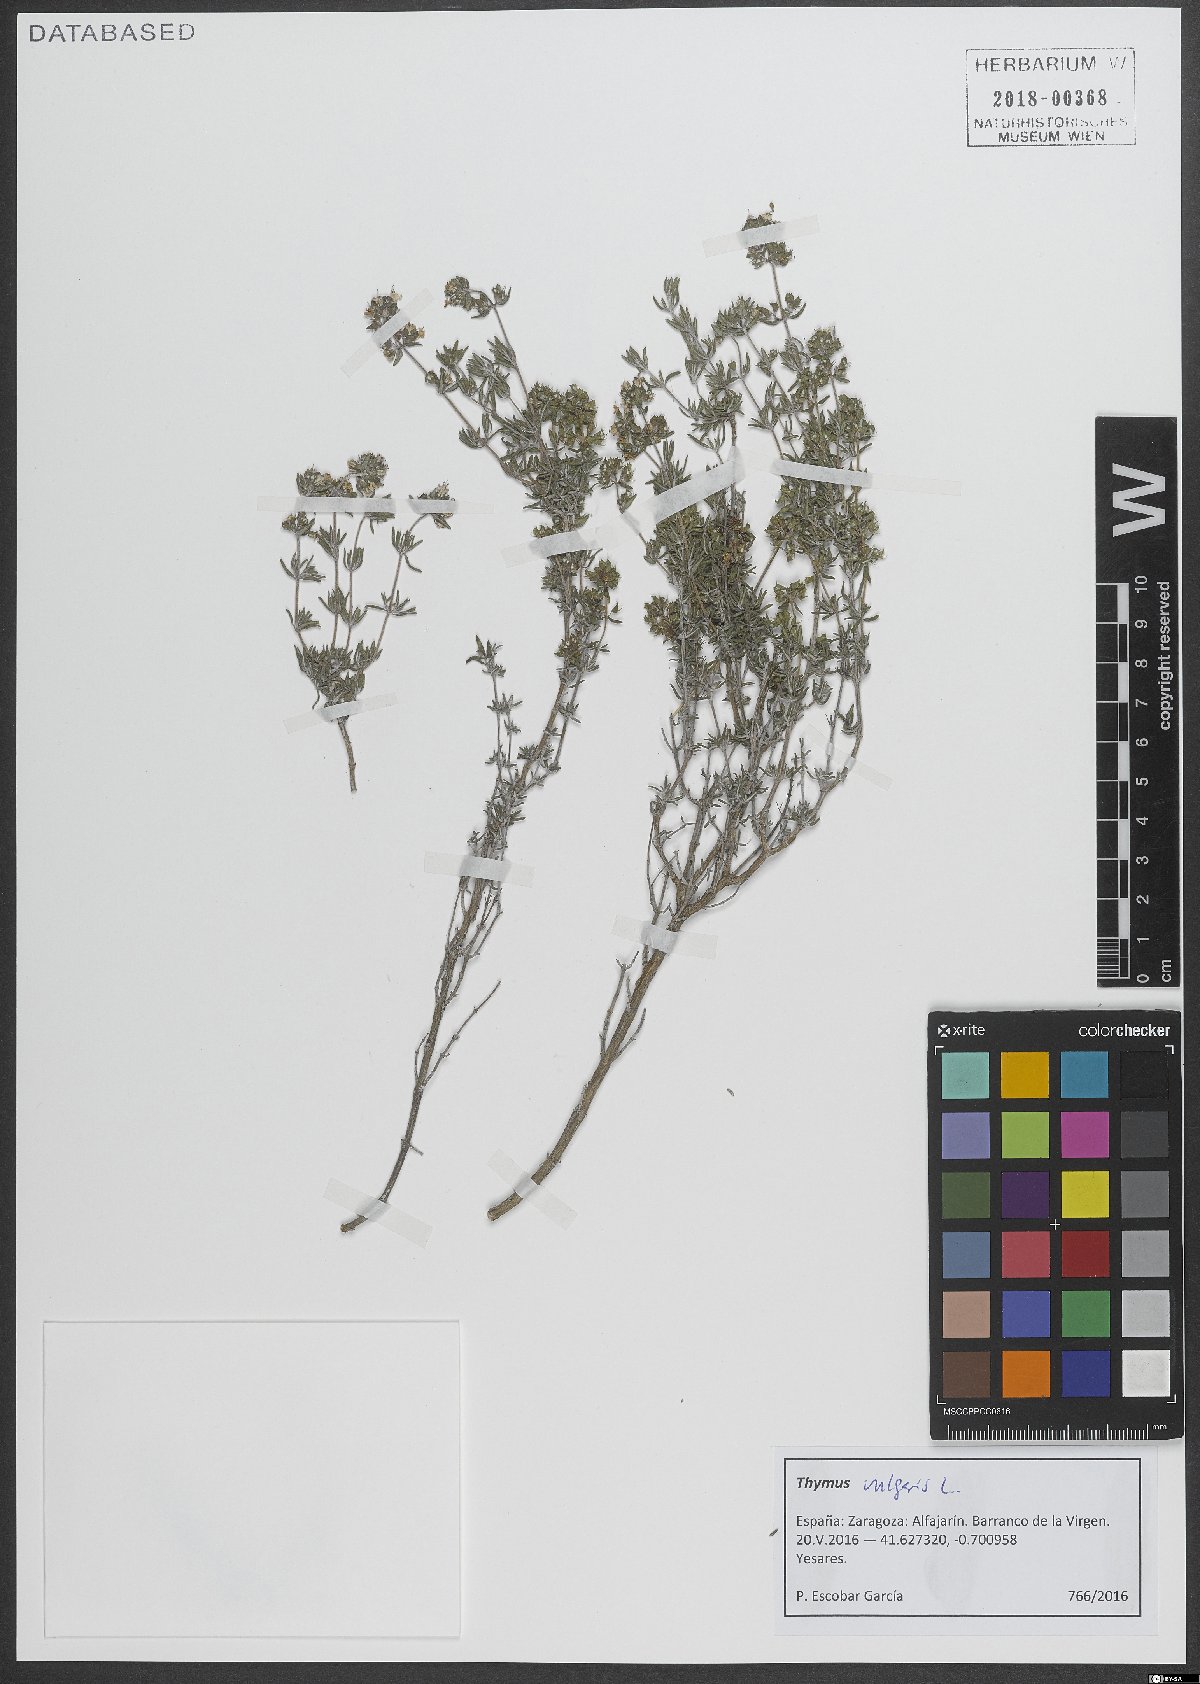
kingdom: Plantae
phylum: Tracheophyta
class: Magnoliopsida
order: Lamiales
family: Lamiaceae
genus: Thymus
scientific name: Thymus vulgaris
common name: Garden thyme
